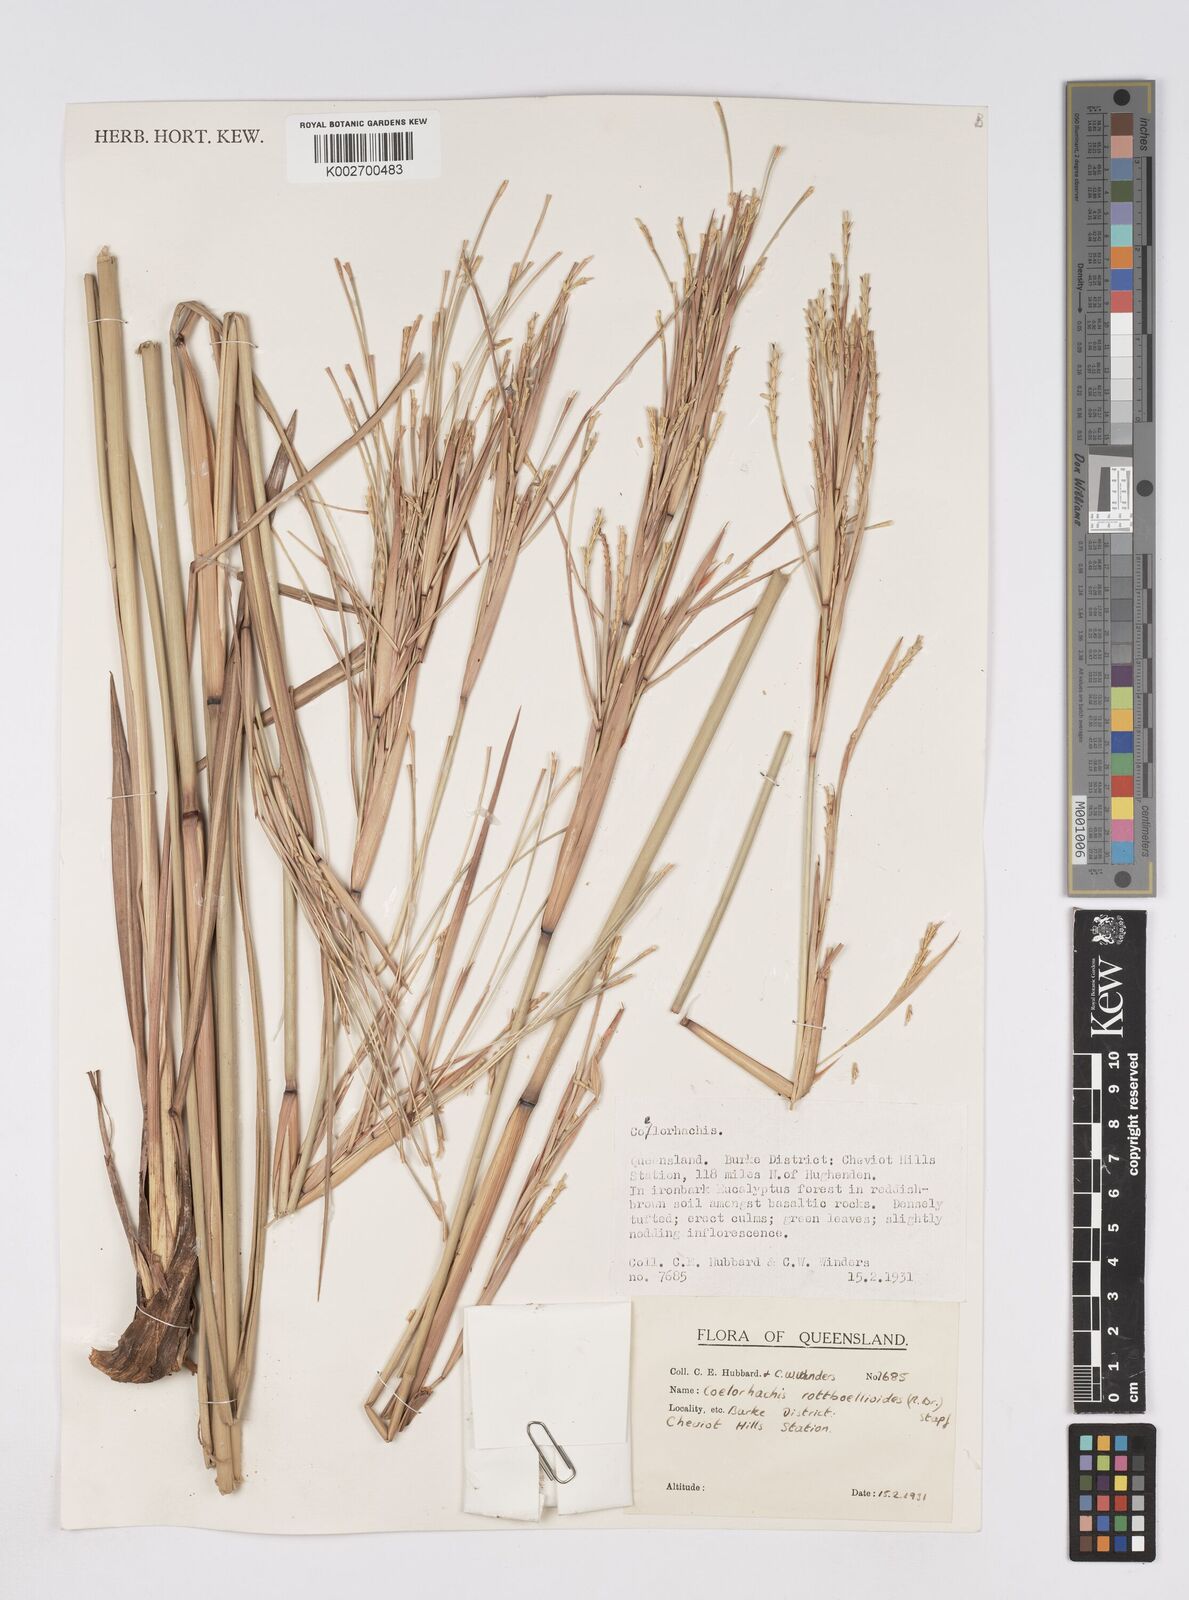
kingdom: Plantae
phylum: Tracheophyta
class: Liliopsida
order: Poales
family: Poaceae
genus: Rottboellia
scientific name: Rottboellia rottboellioides
